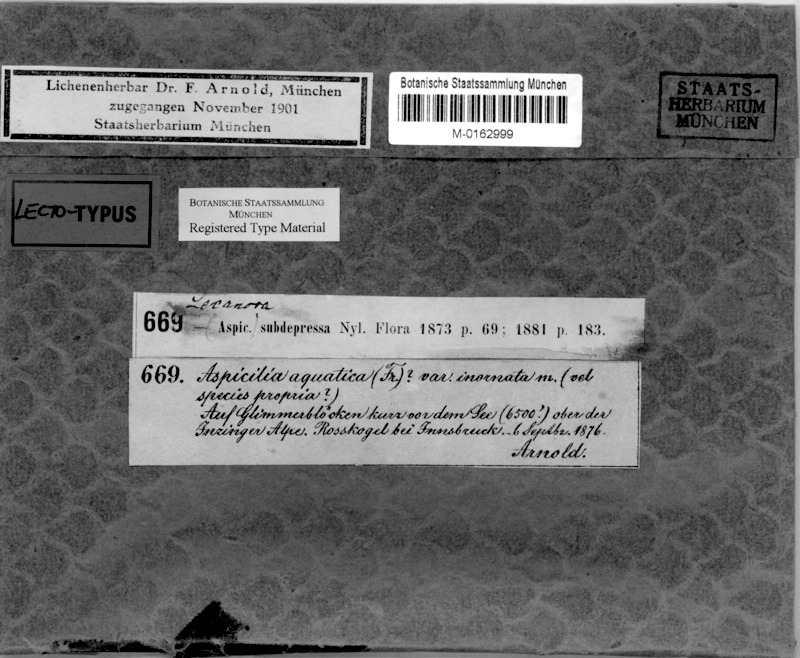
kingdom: Fungi
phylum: Ascomycota
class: Lecanoromycetes
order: Pertusariales
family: Megasporaceae
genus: Aspicilia
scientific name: Aspicilia inornata
